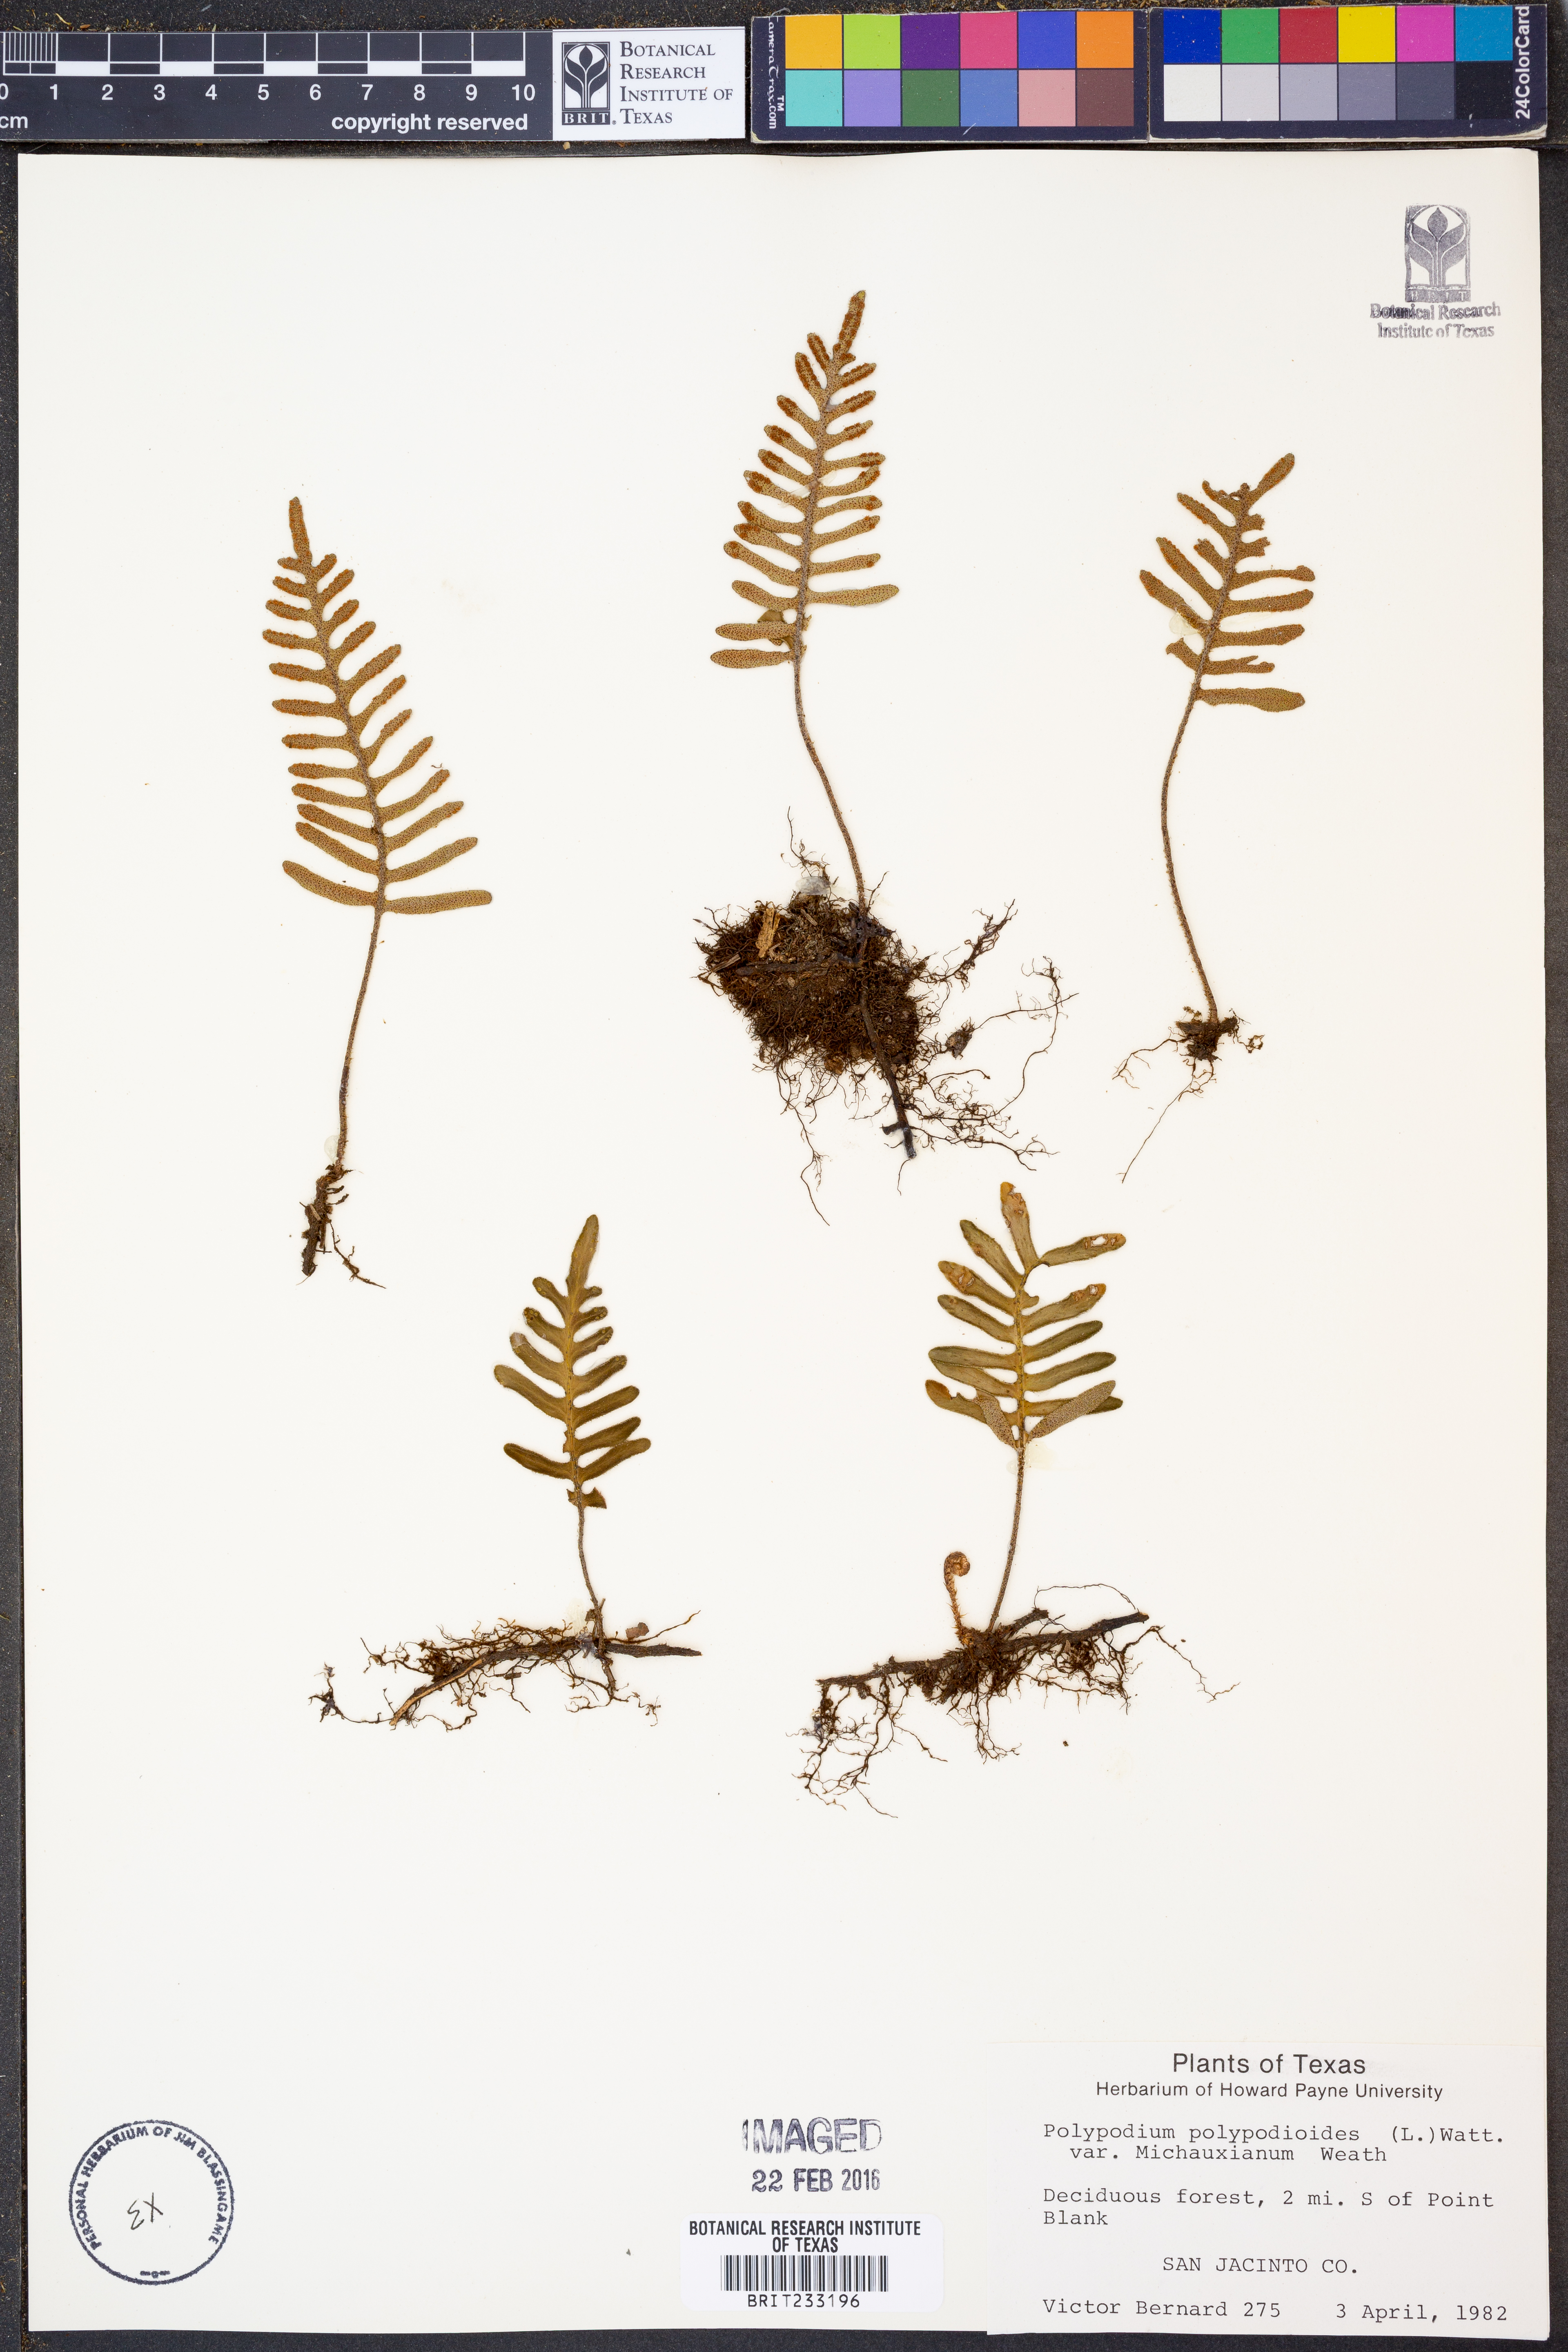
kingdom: Plantae
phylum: Tracheophyta
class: Polypodiopsida
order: Polypodiales
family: Polypodiaceae
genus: Pleopeltis
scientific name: Pleopeltis michauxiana
